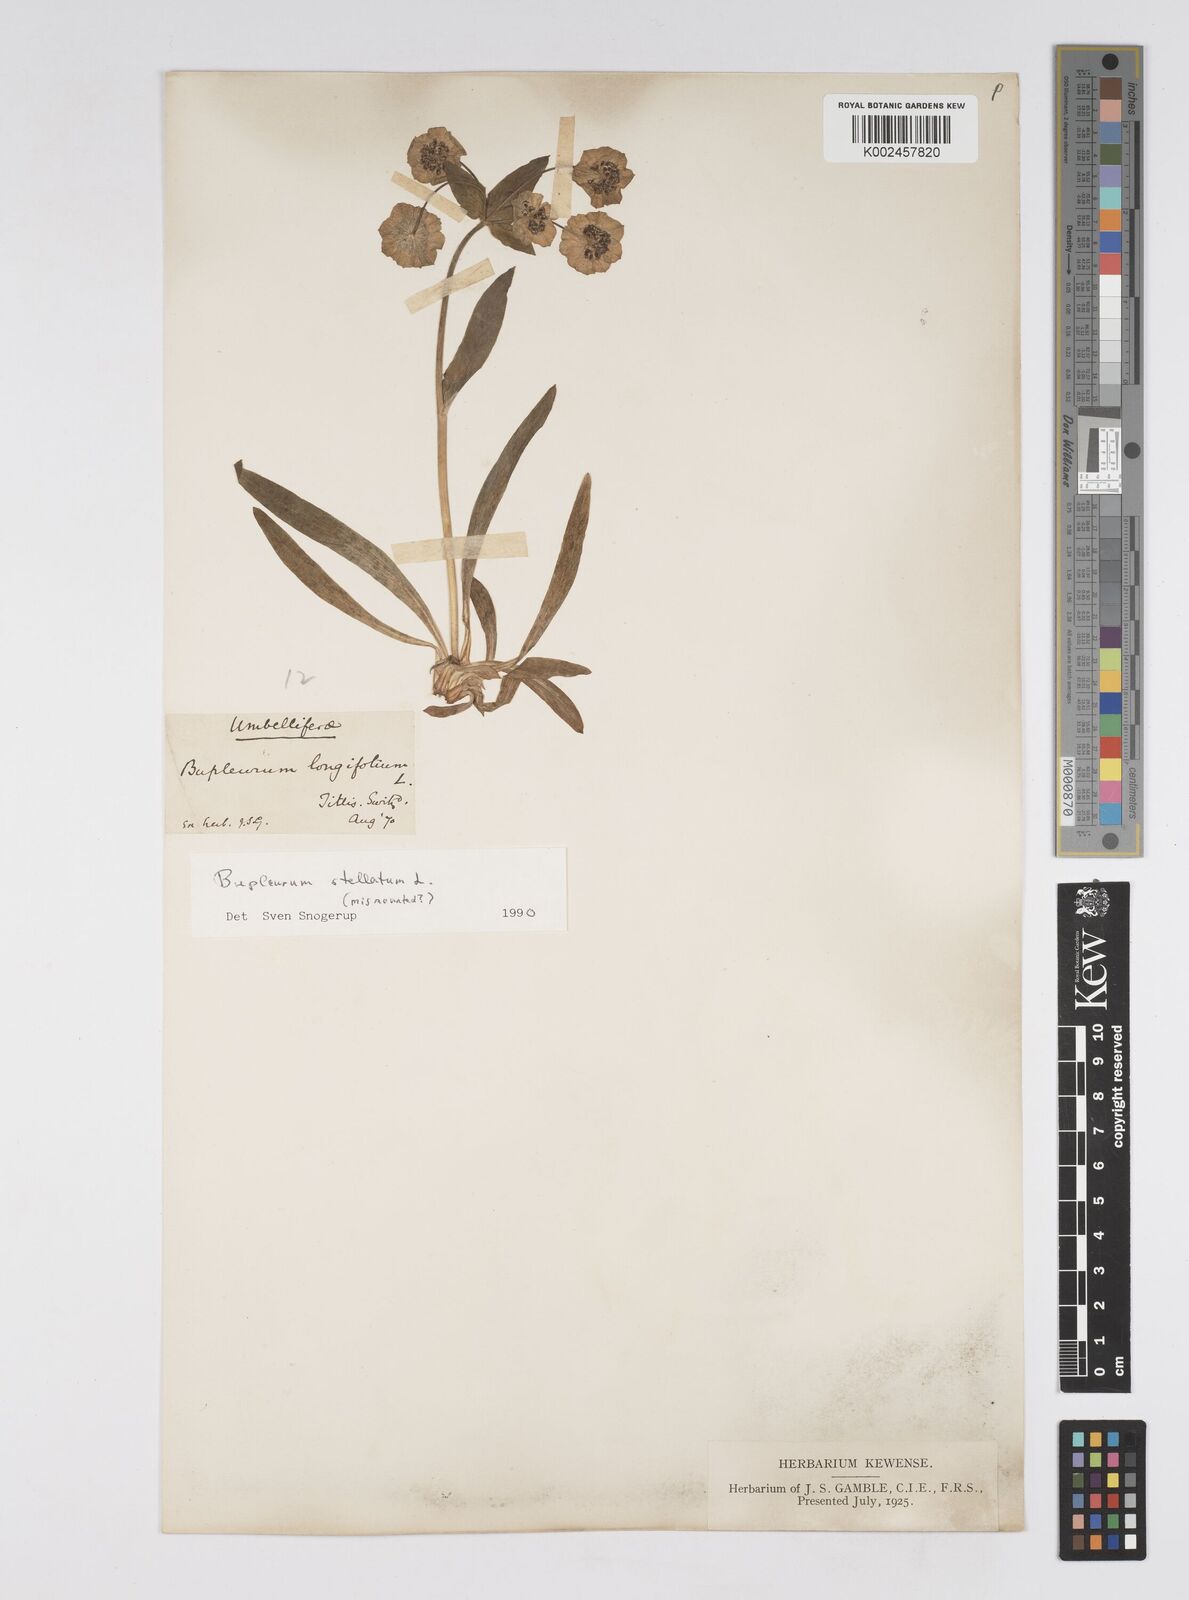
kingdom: Plantae
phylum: Tracheophyta
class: Magnoliopsida
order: Apiales
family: Apiaceae
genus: Bupleurum
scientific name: Bupleurum stellatum
